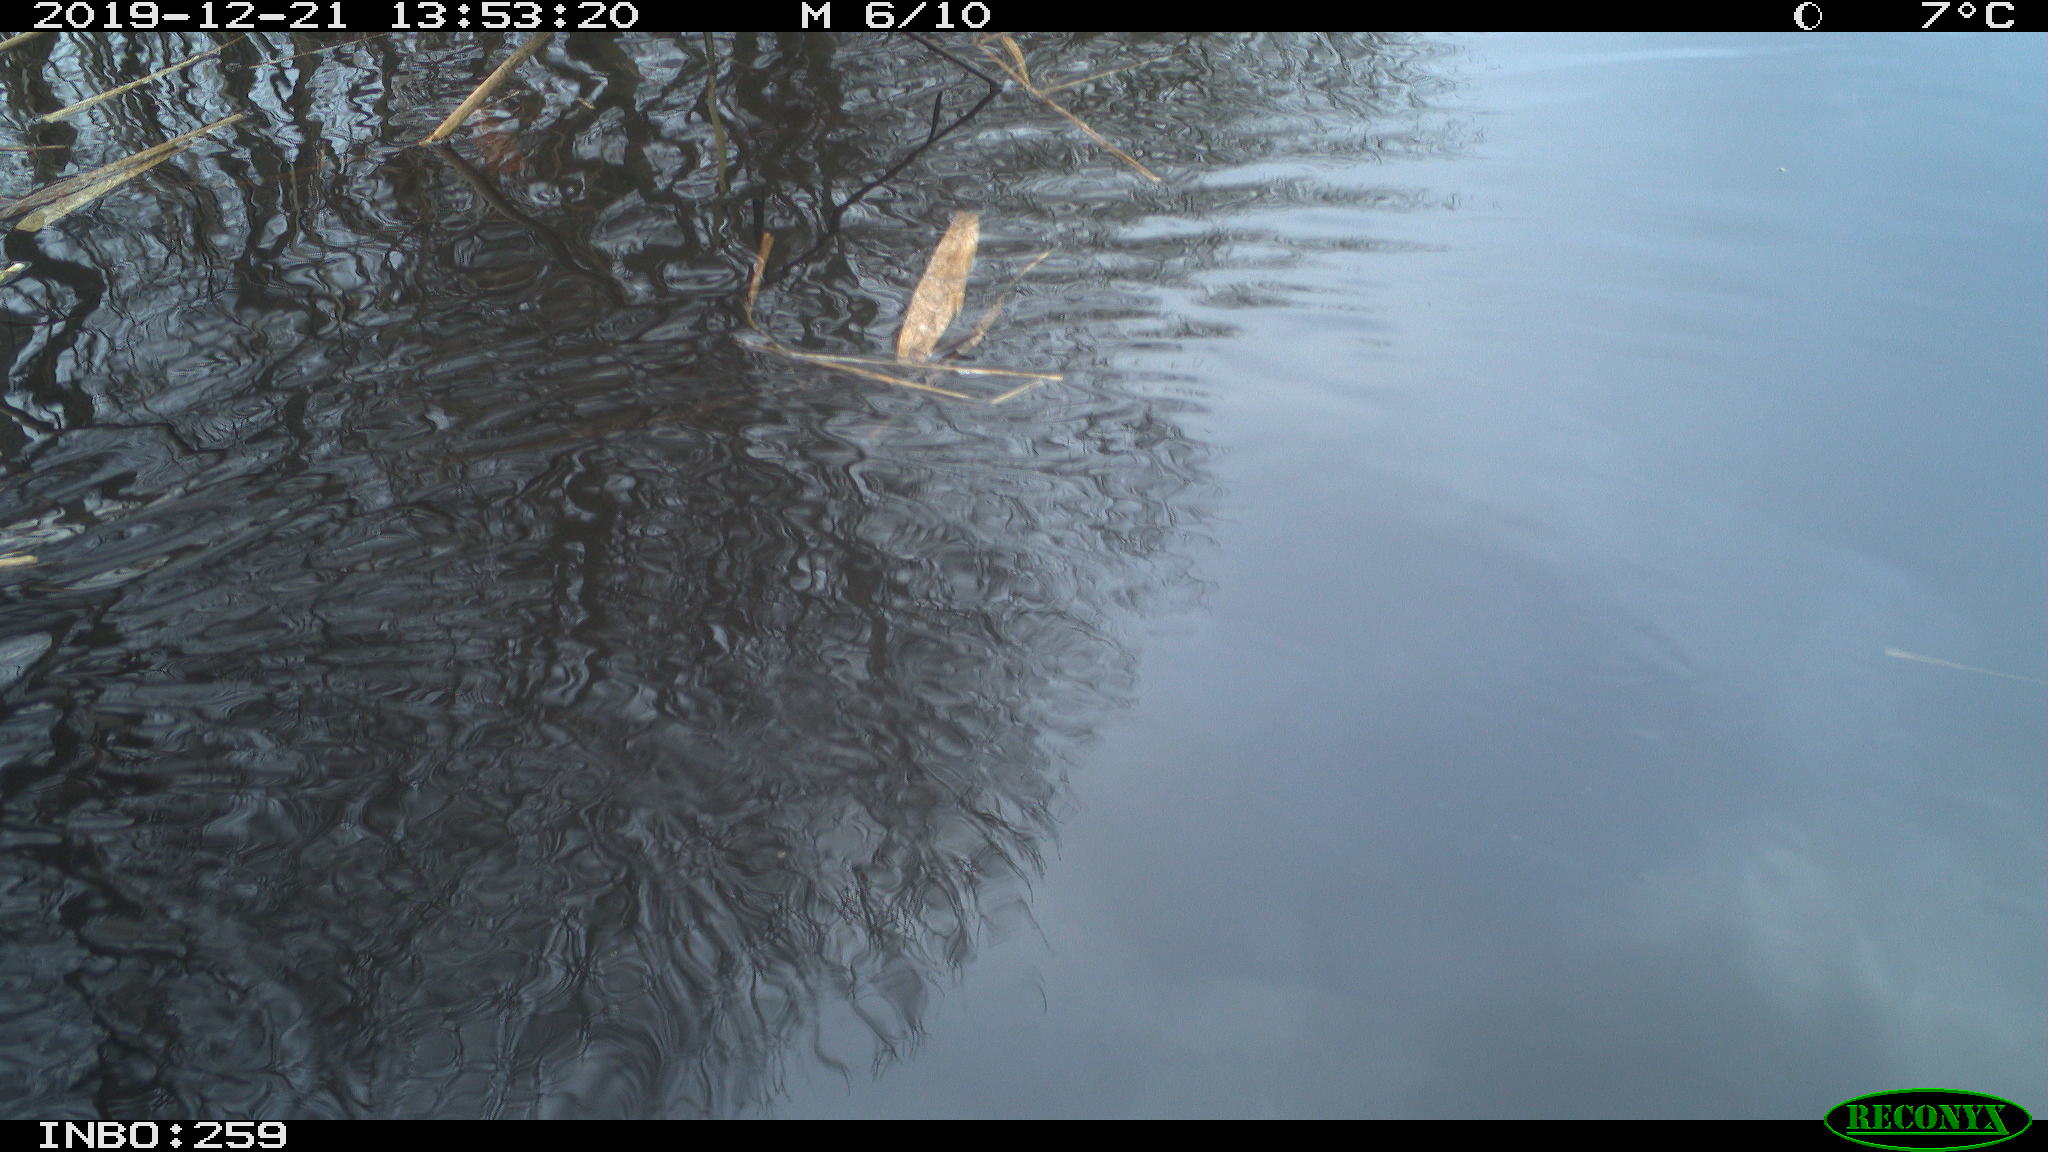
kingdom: Animalia
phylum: Chordata
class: Aves
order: Gruiformes
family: Rallidae
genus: Gallinula
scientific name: Gallinula chloropus
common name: Common moorhen
